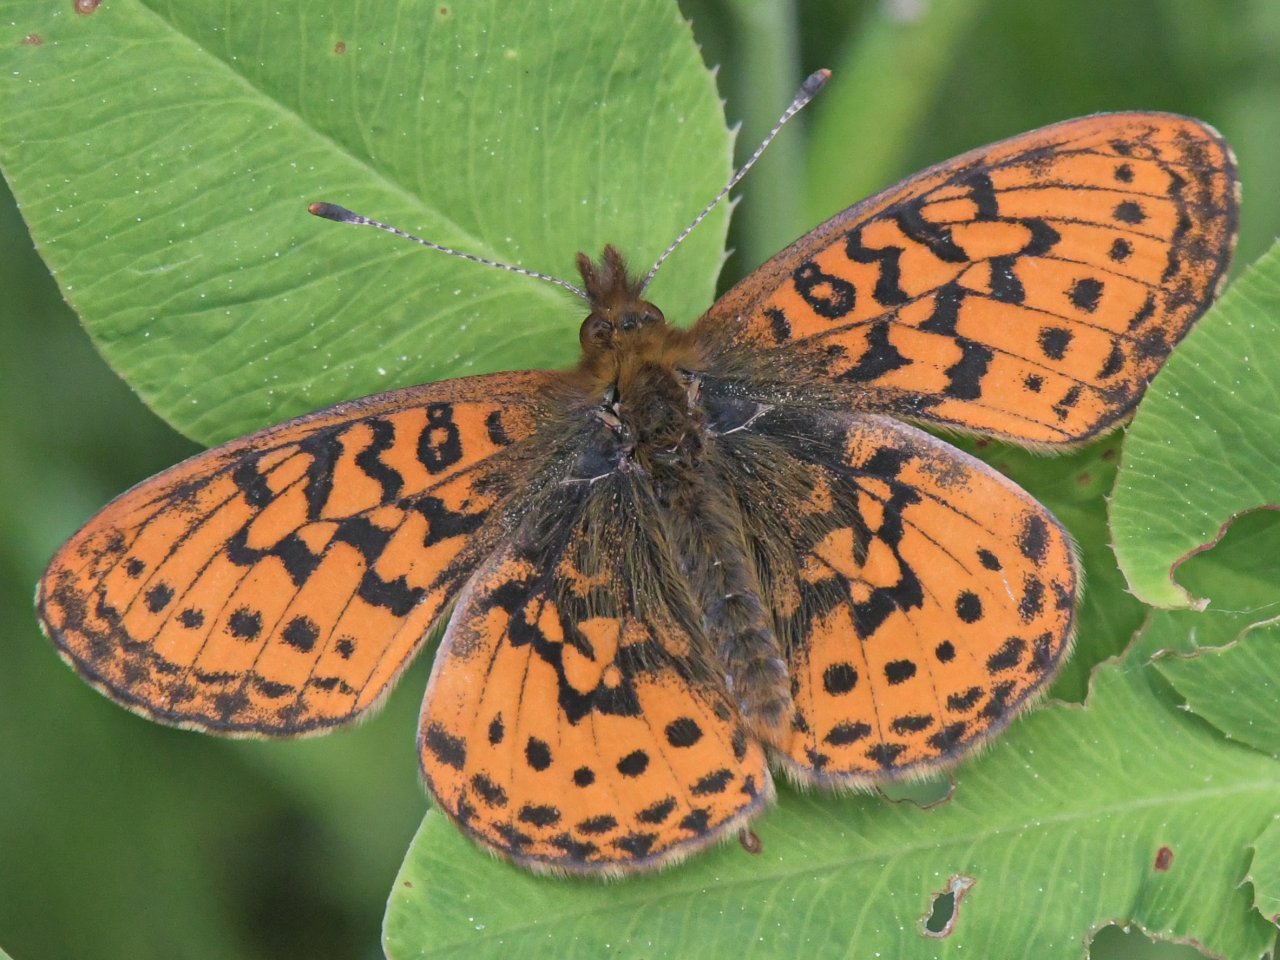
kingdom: Animalia
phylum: Arthropoda
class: Insecta
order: Lepidoptera
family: Nymphalidae
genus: Boloria
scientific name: Boloria epithore
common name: Pacific Fritillary
